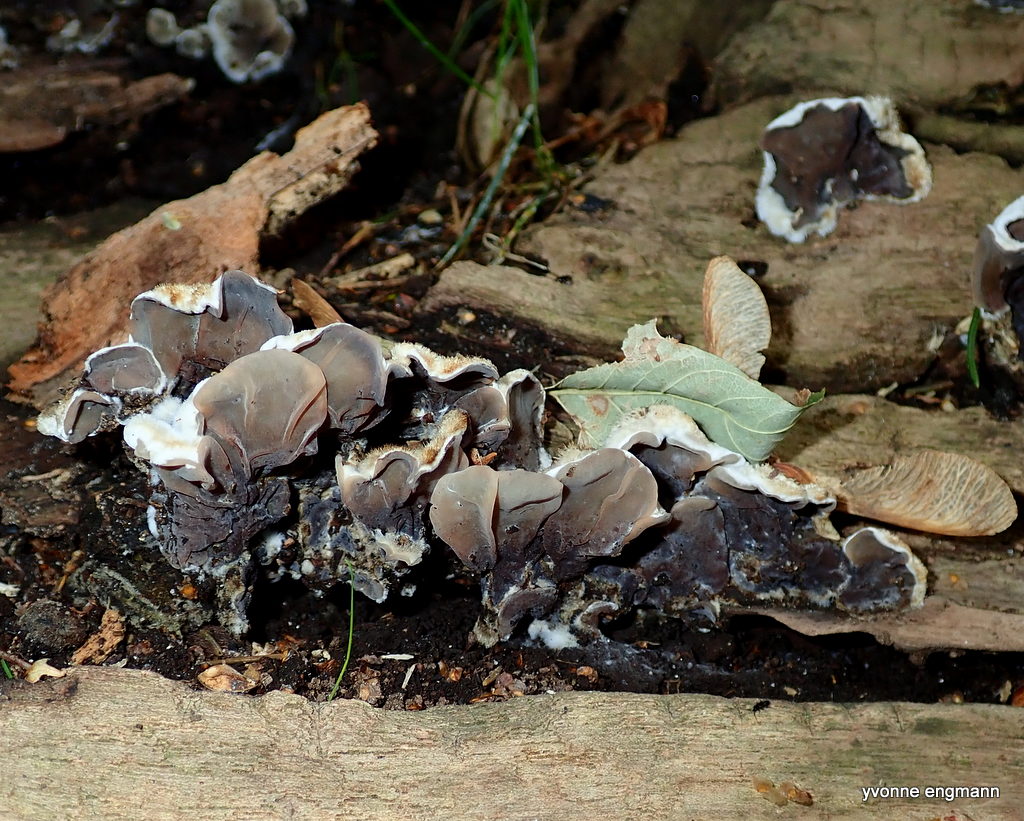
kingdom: Fungi
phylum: Basidiomycota
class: Agaricomycetes
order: Auriculariales
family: Auriculariaceae
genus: Auricularia
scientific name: Auricularia mesenterica
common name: håret judasøre
